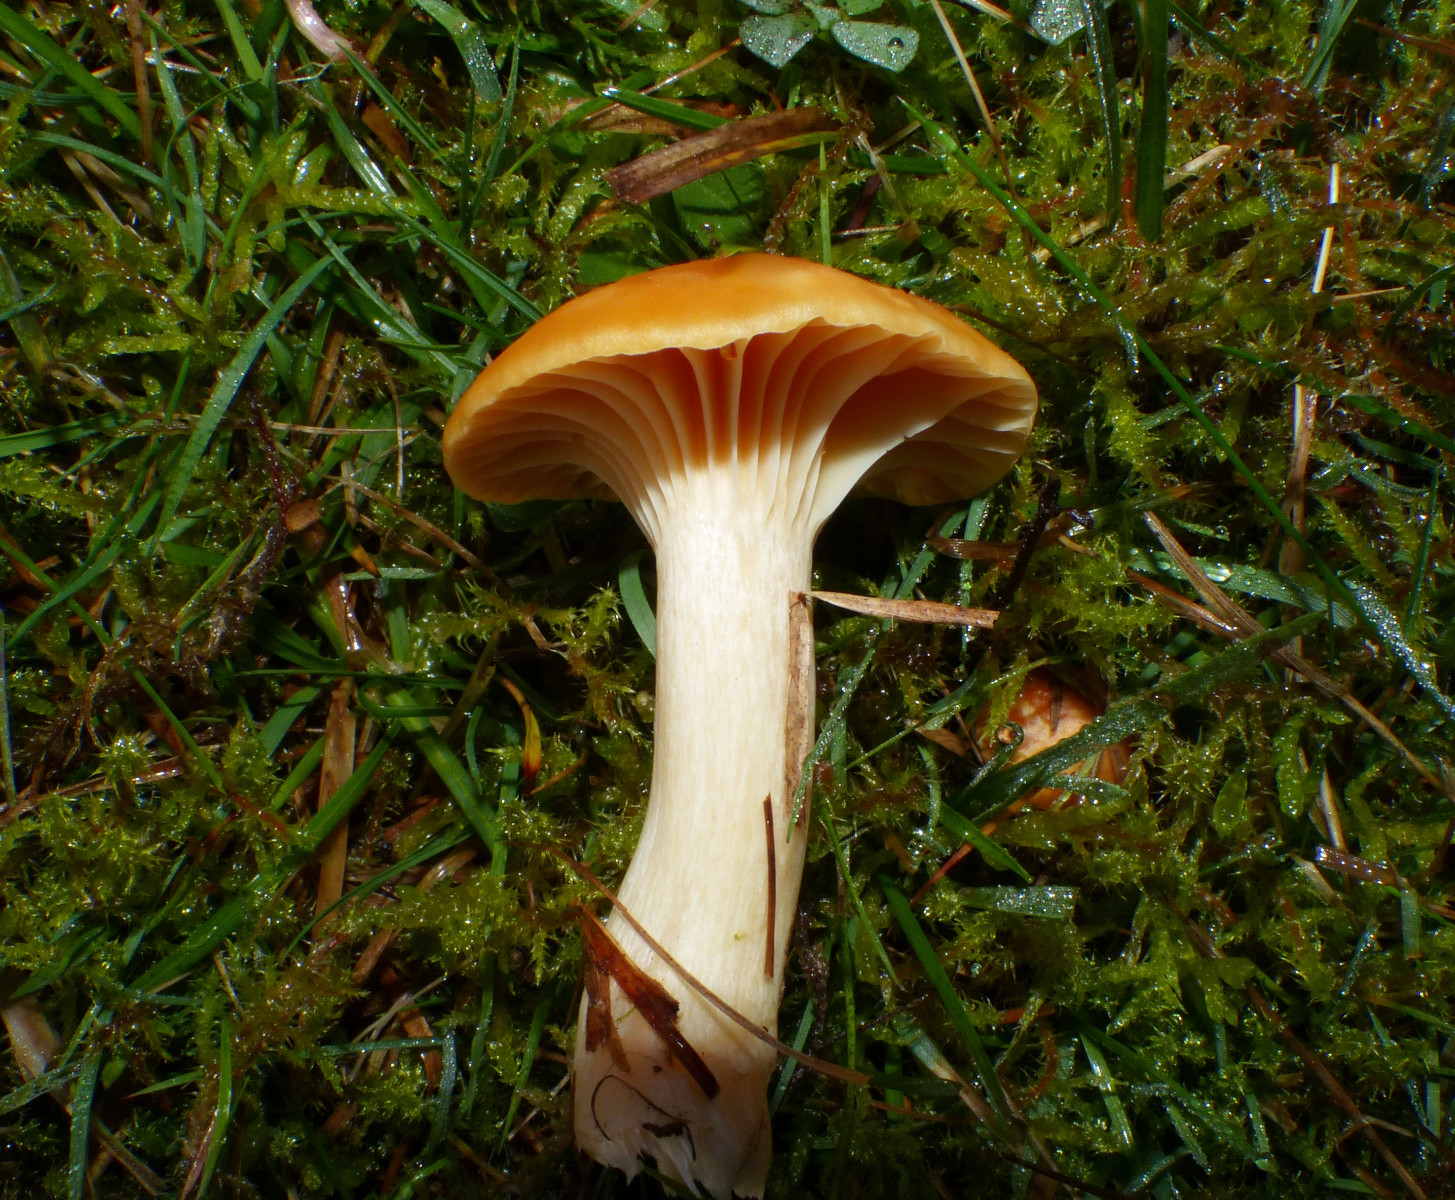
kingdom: Fungi
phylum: Basidiomycota
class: Agaricomycetes
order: Agaricales
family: Hygrophoraceae
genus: Cuphophyllus
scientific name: Cuphophyllus pratensis
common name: eng-vokshat
